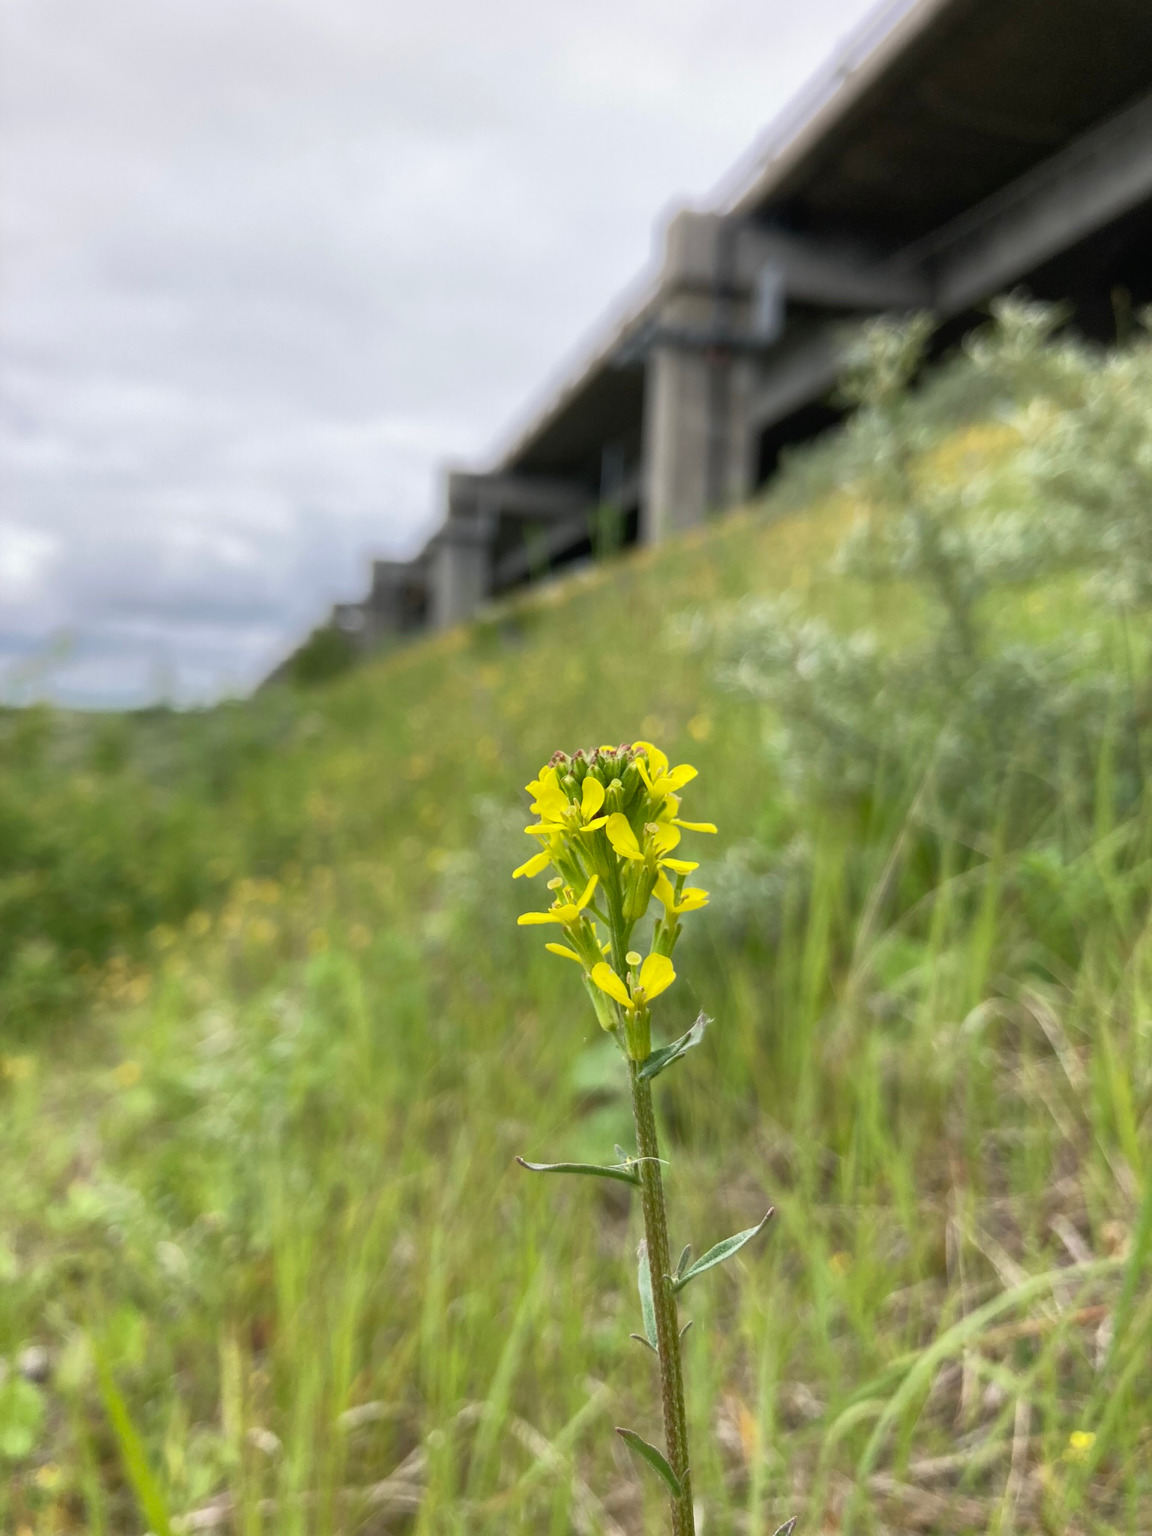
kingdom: Plantae
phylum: Tracheophyta
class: Magnoliopsida
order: Brassicales
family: Brassicaceae
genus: Erysimum
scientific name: Erysimum marschallianum
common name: Hård hjørneklap
